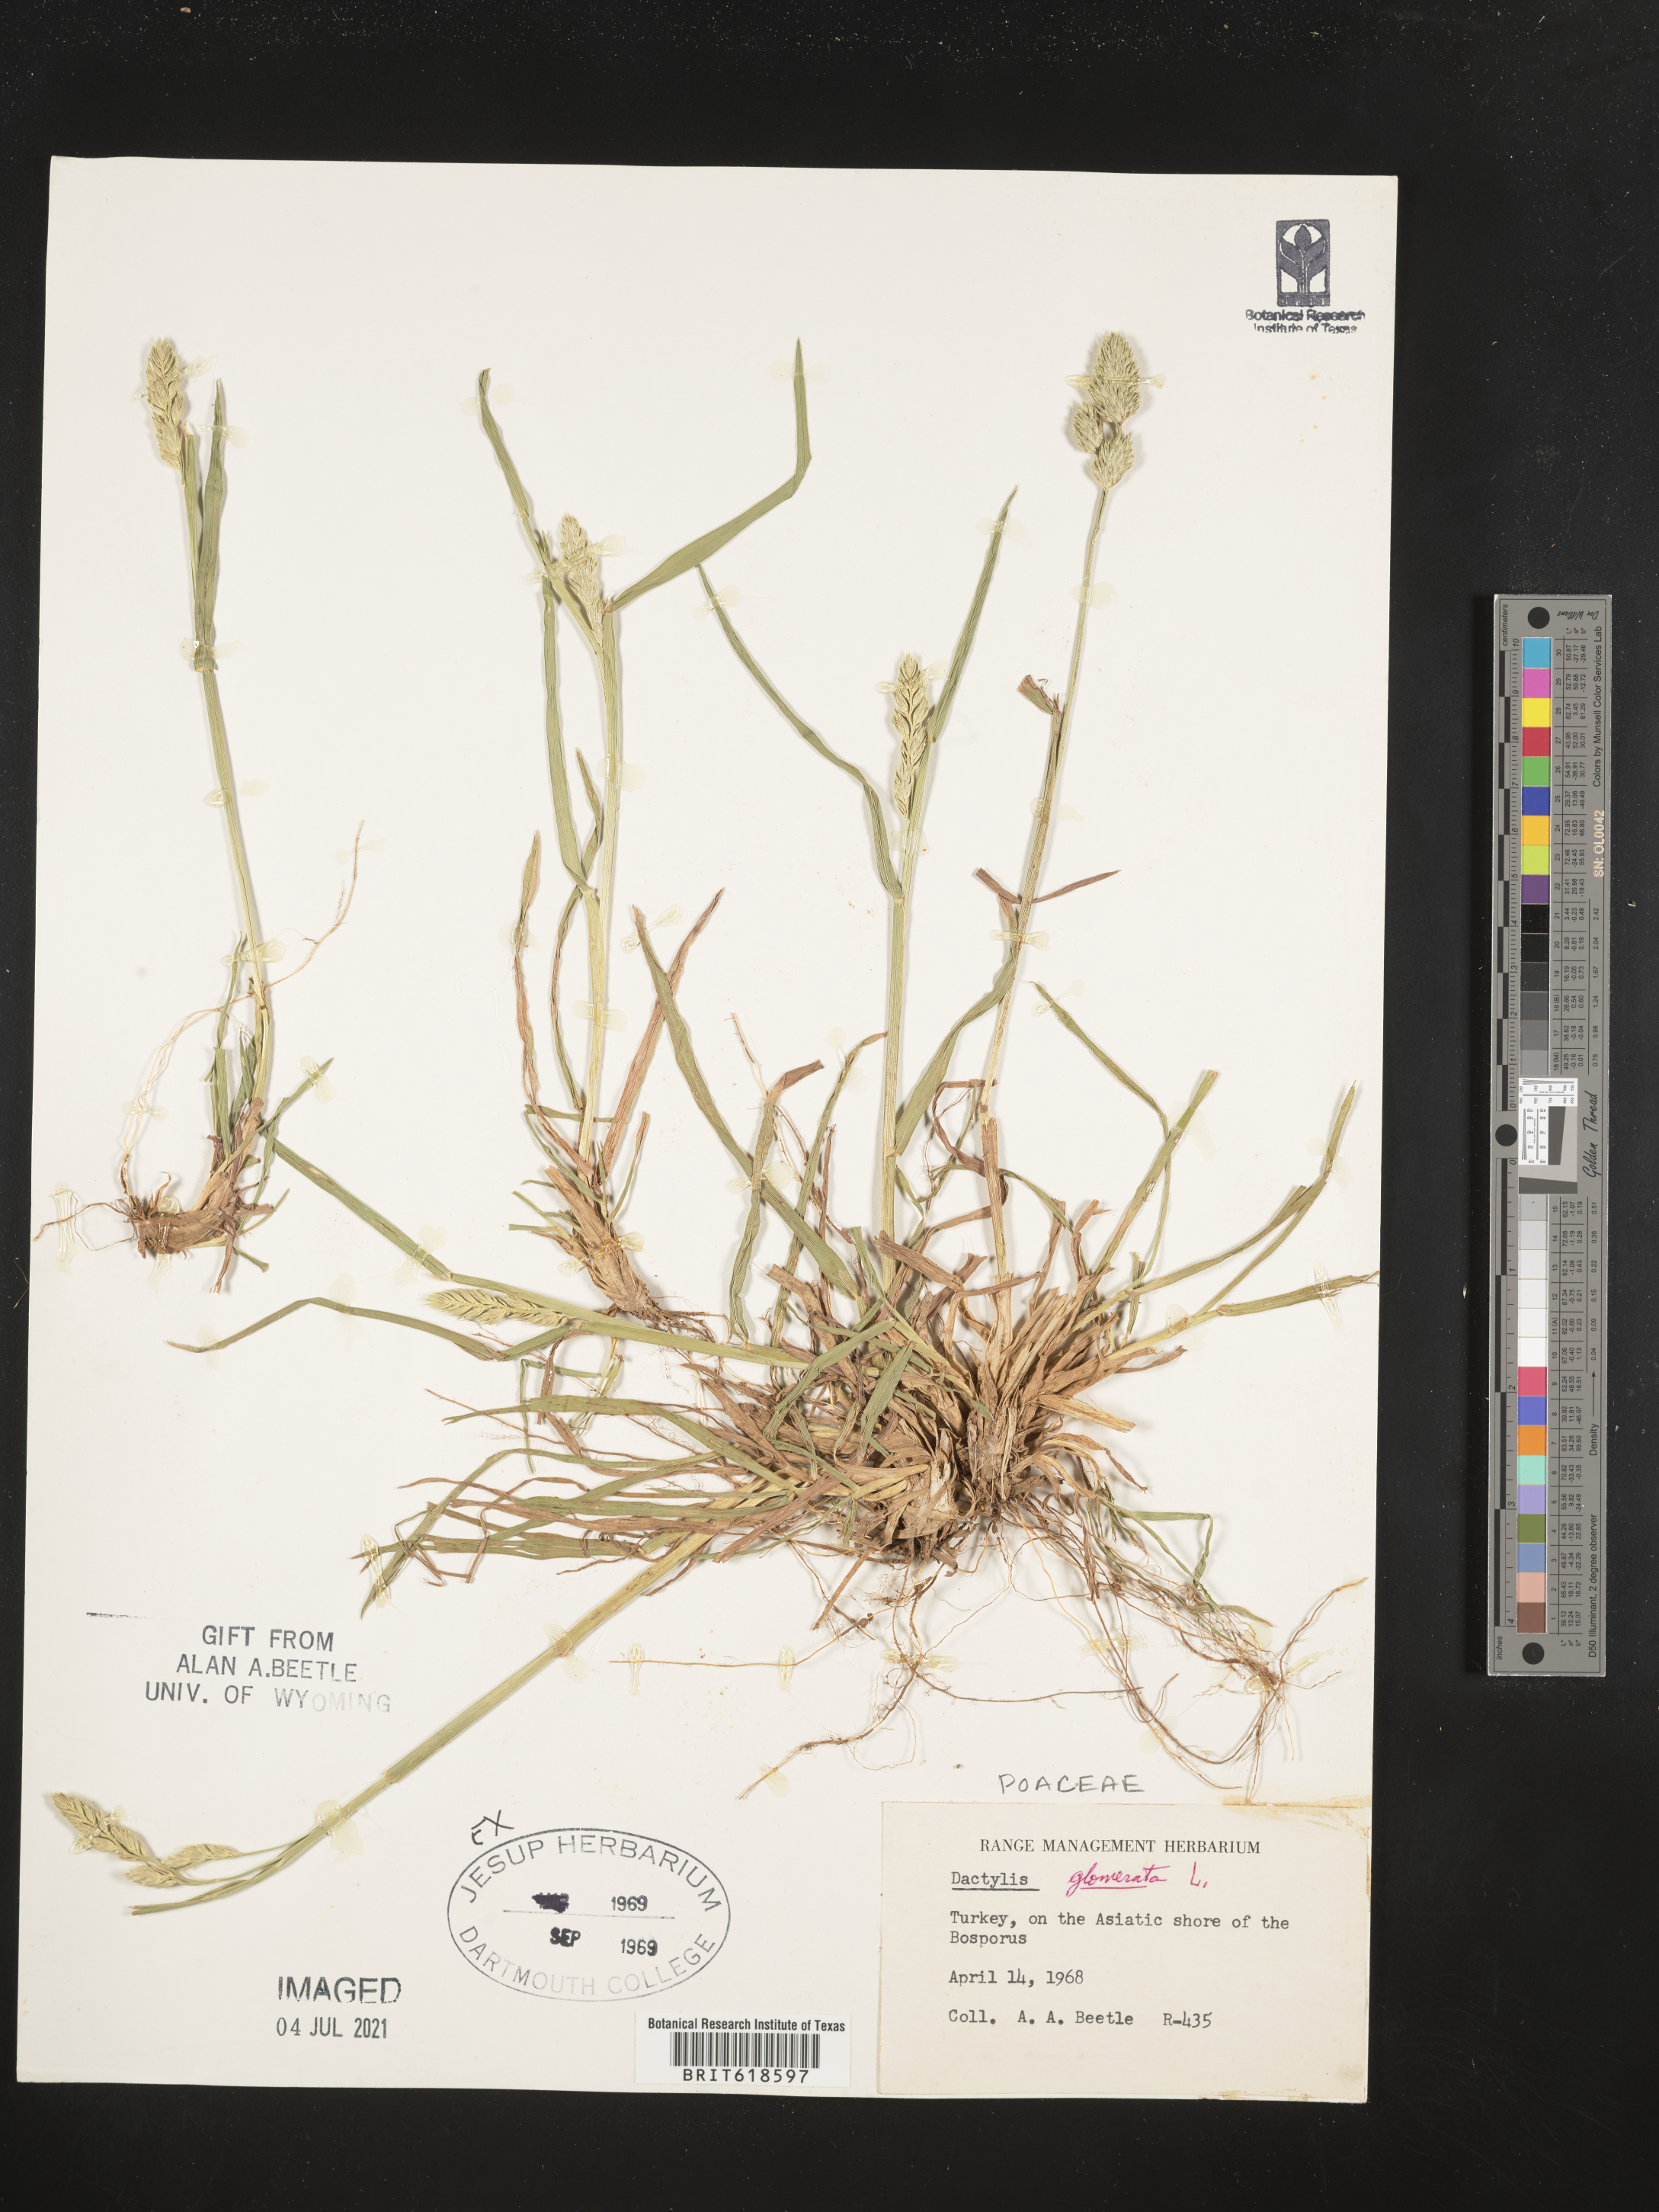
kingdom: Plantae
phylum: Tracheophyta
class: Liliopsida
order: Poales
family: Poaceae
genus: Dactylis
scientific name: Dactylis glomerata
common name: Orchardgrass
